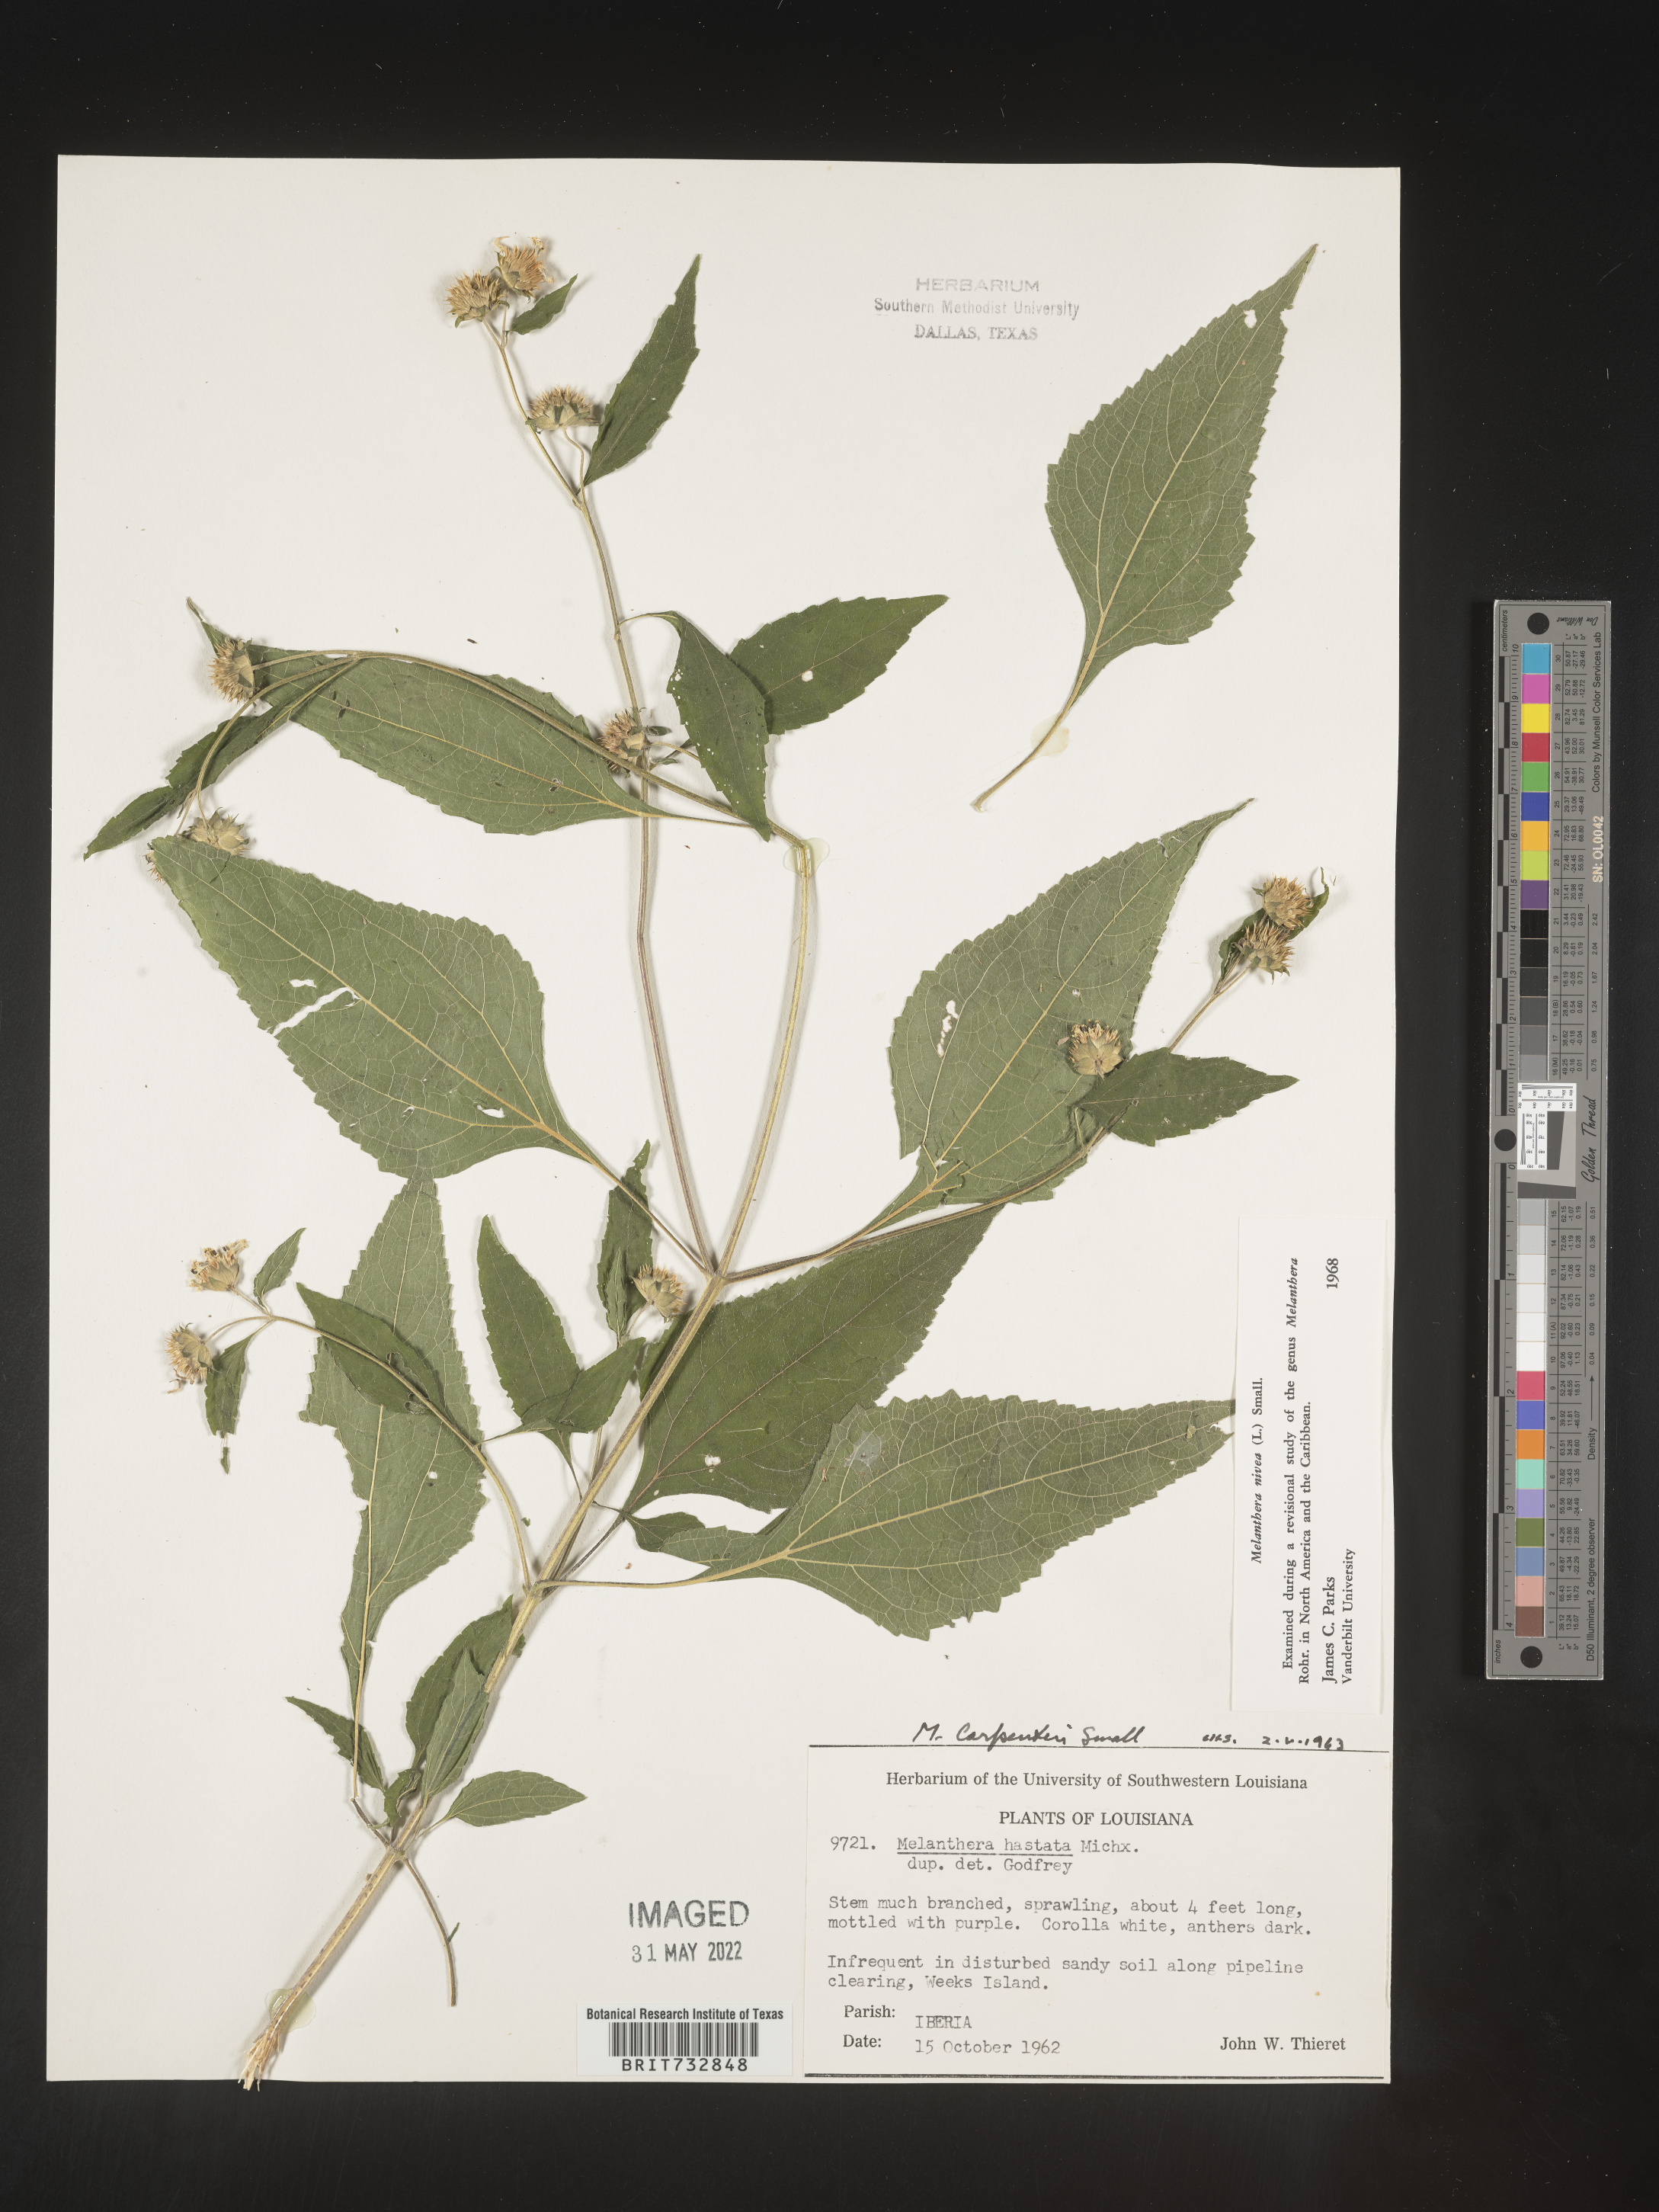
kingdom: Plantae
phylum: Tracheophyta
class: Magnoliopsida
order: Asterales
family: Asteraceae
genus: Melanthera
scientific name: Melanthera nivea
